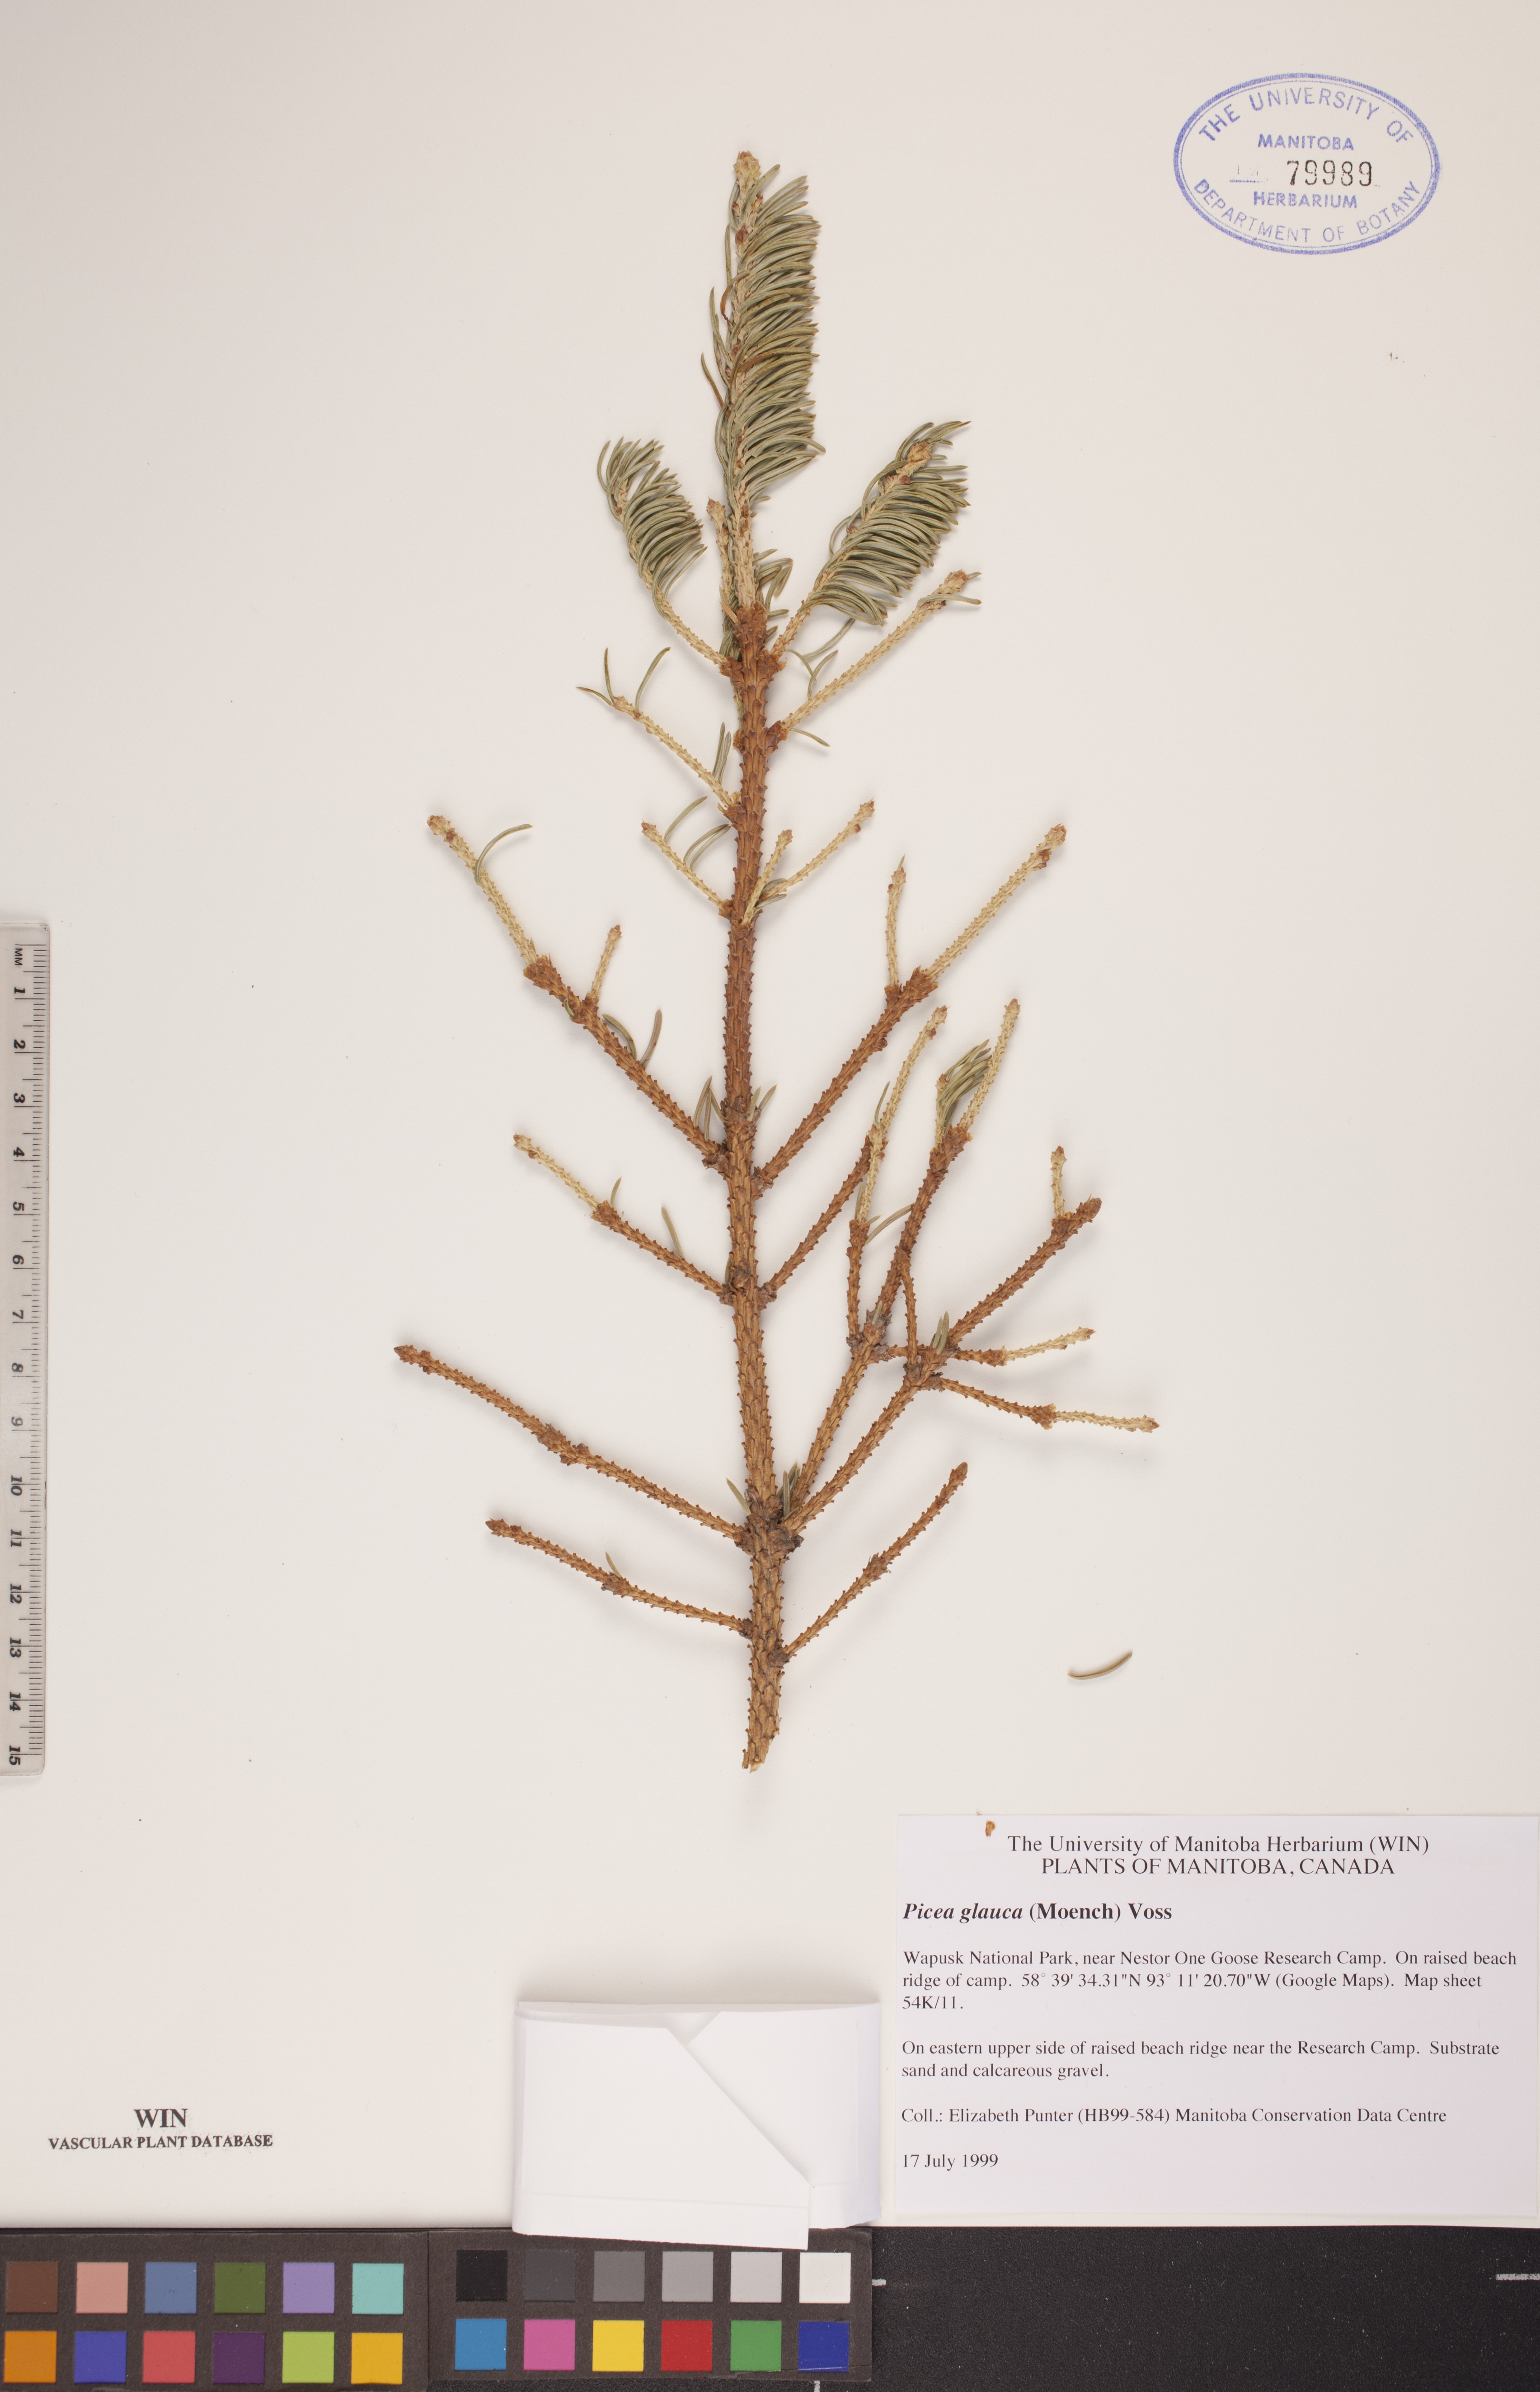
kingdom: Plantae
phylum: Tracheophyta
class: Pinopsida
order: Pinales
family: Pinaceae
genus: Picea
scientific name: Picea glauca
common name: White spruce
